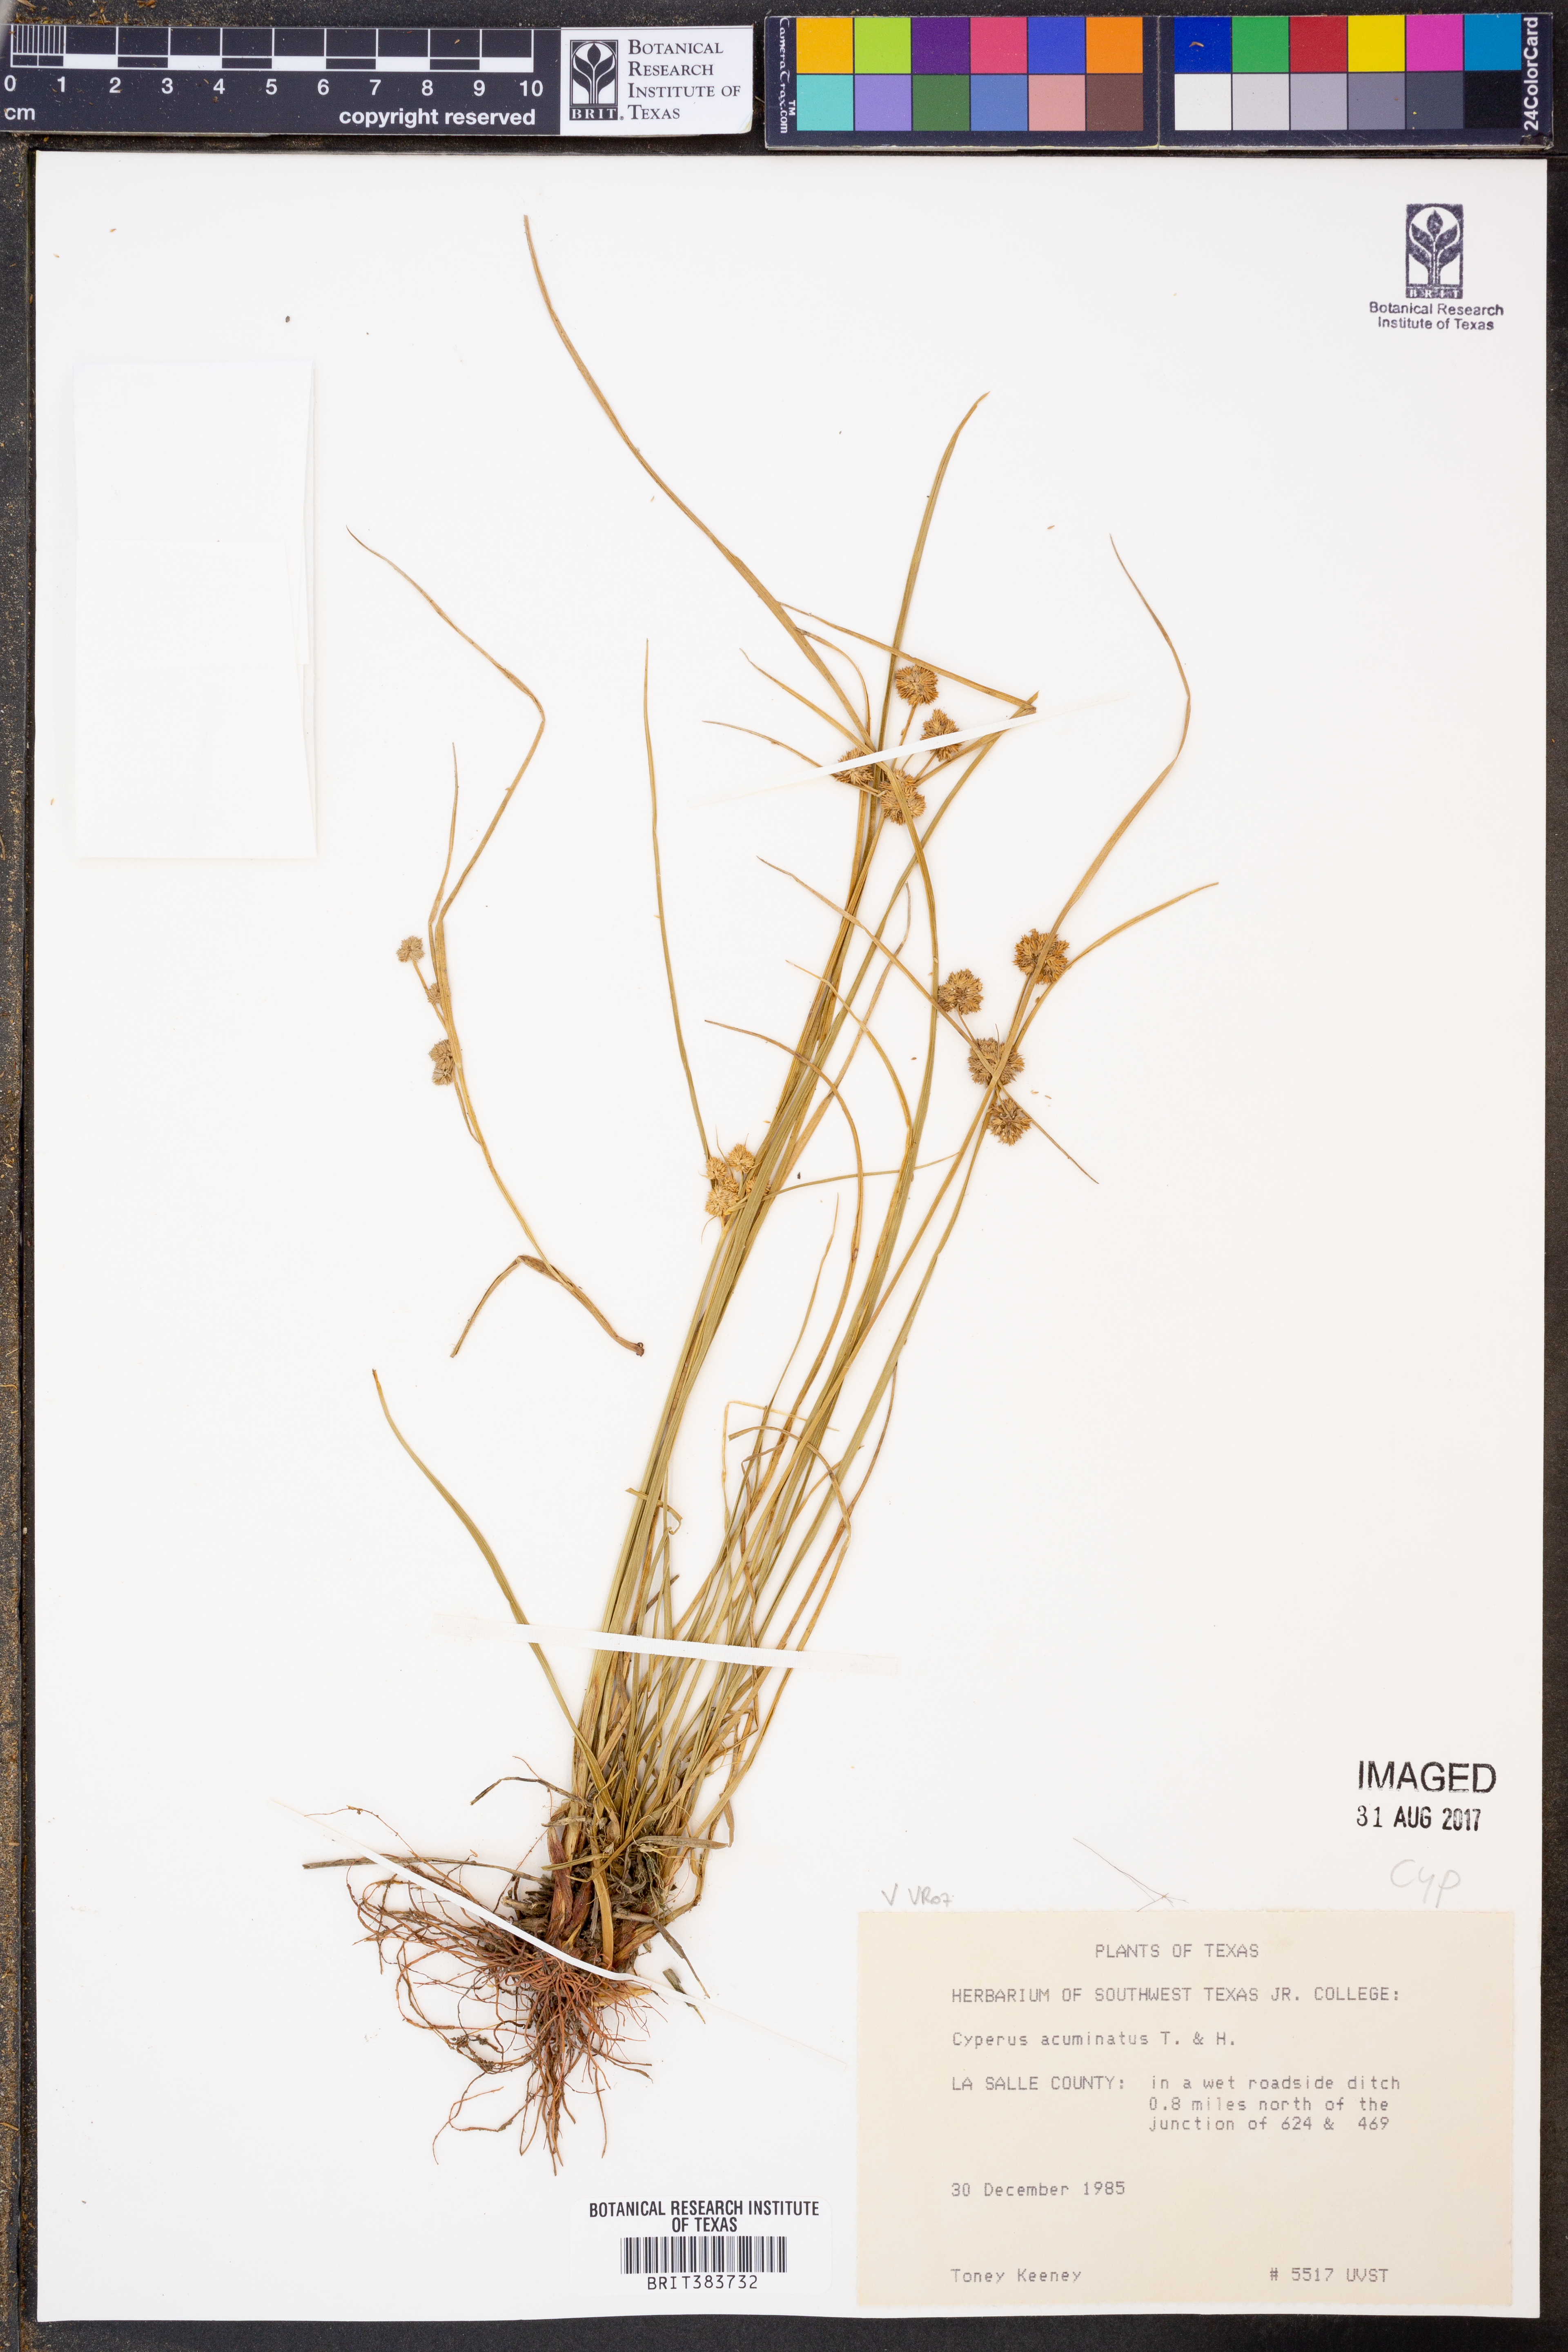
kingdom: Plantae
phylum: Tracheophyta
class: Liliopsida
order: Poales
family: Cyperaceae
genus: Cyperus
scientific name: Cyperus acuminatus
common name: Short-pointed cyperus
